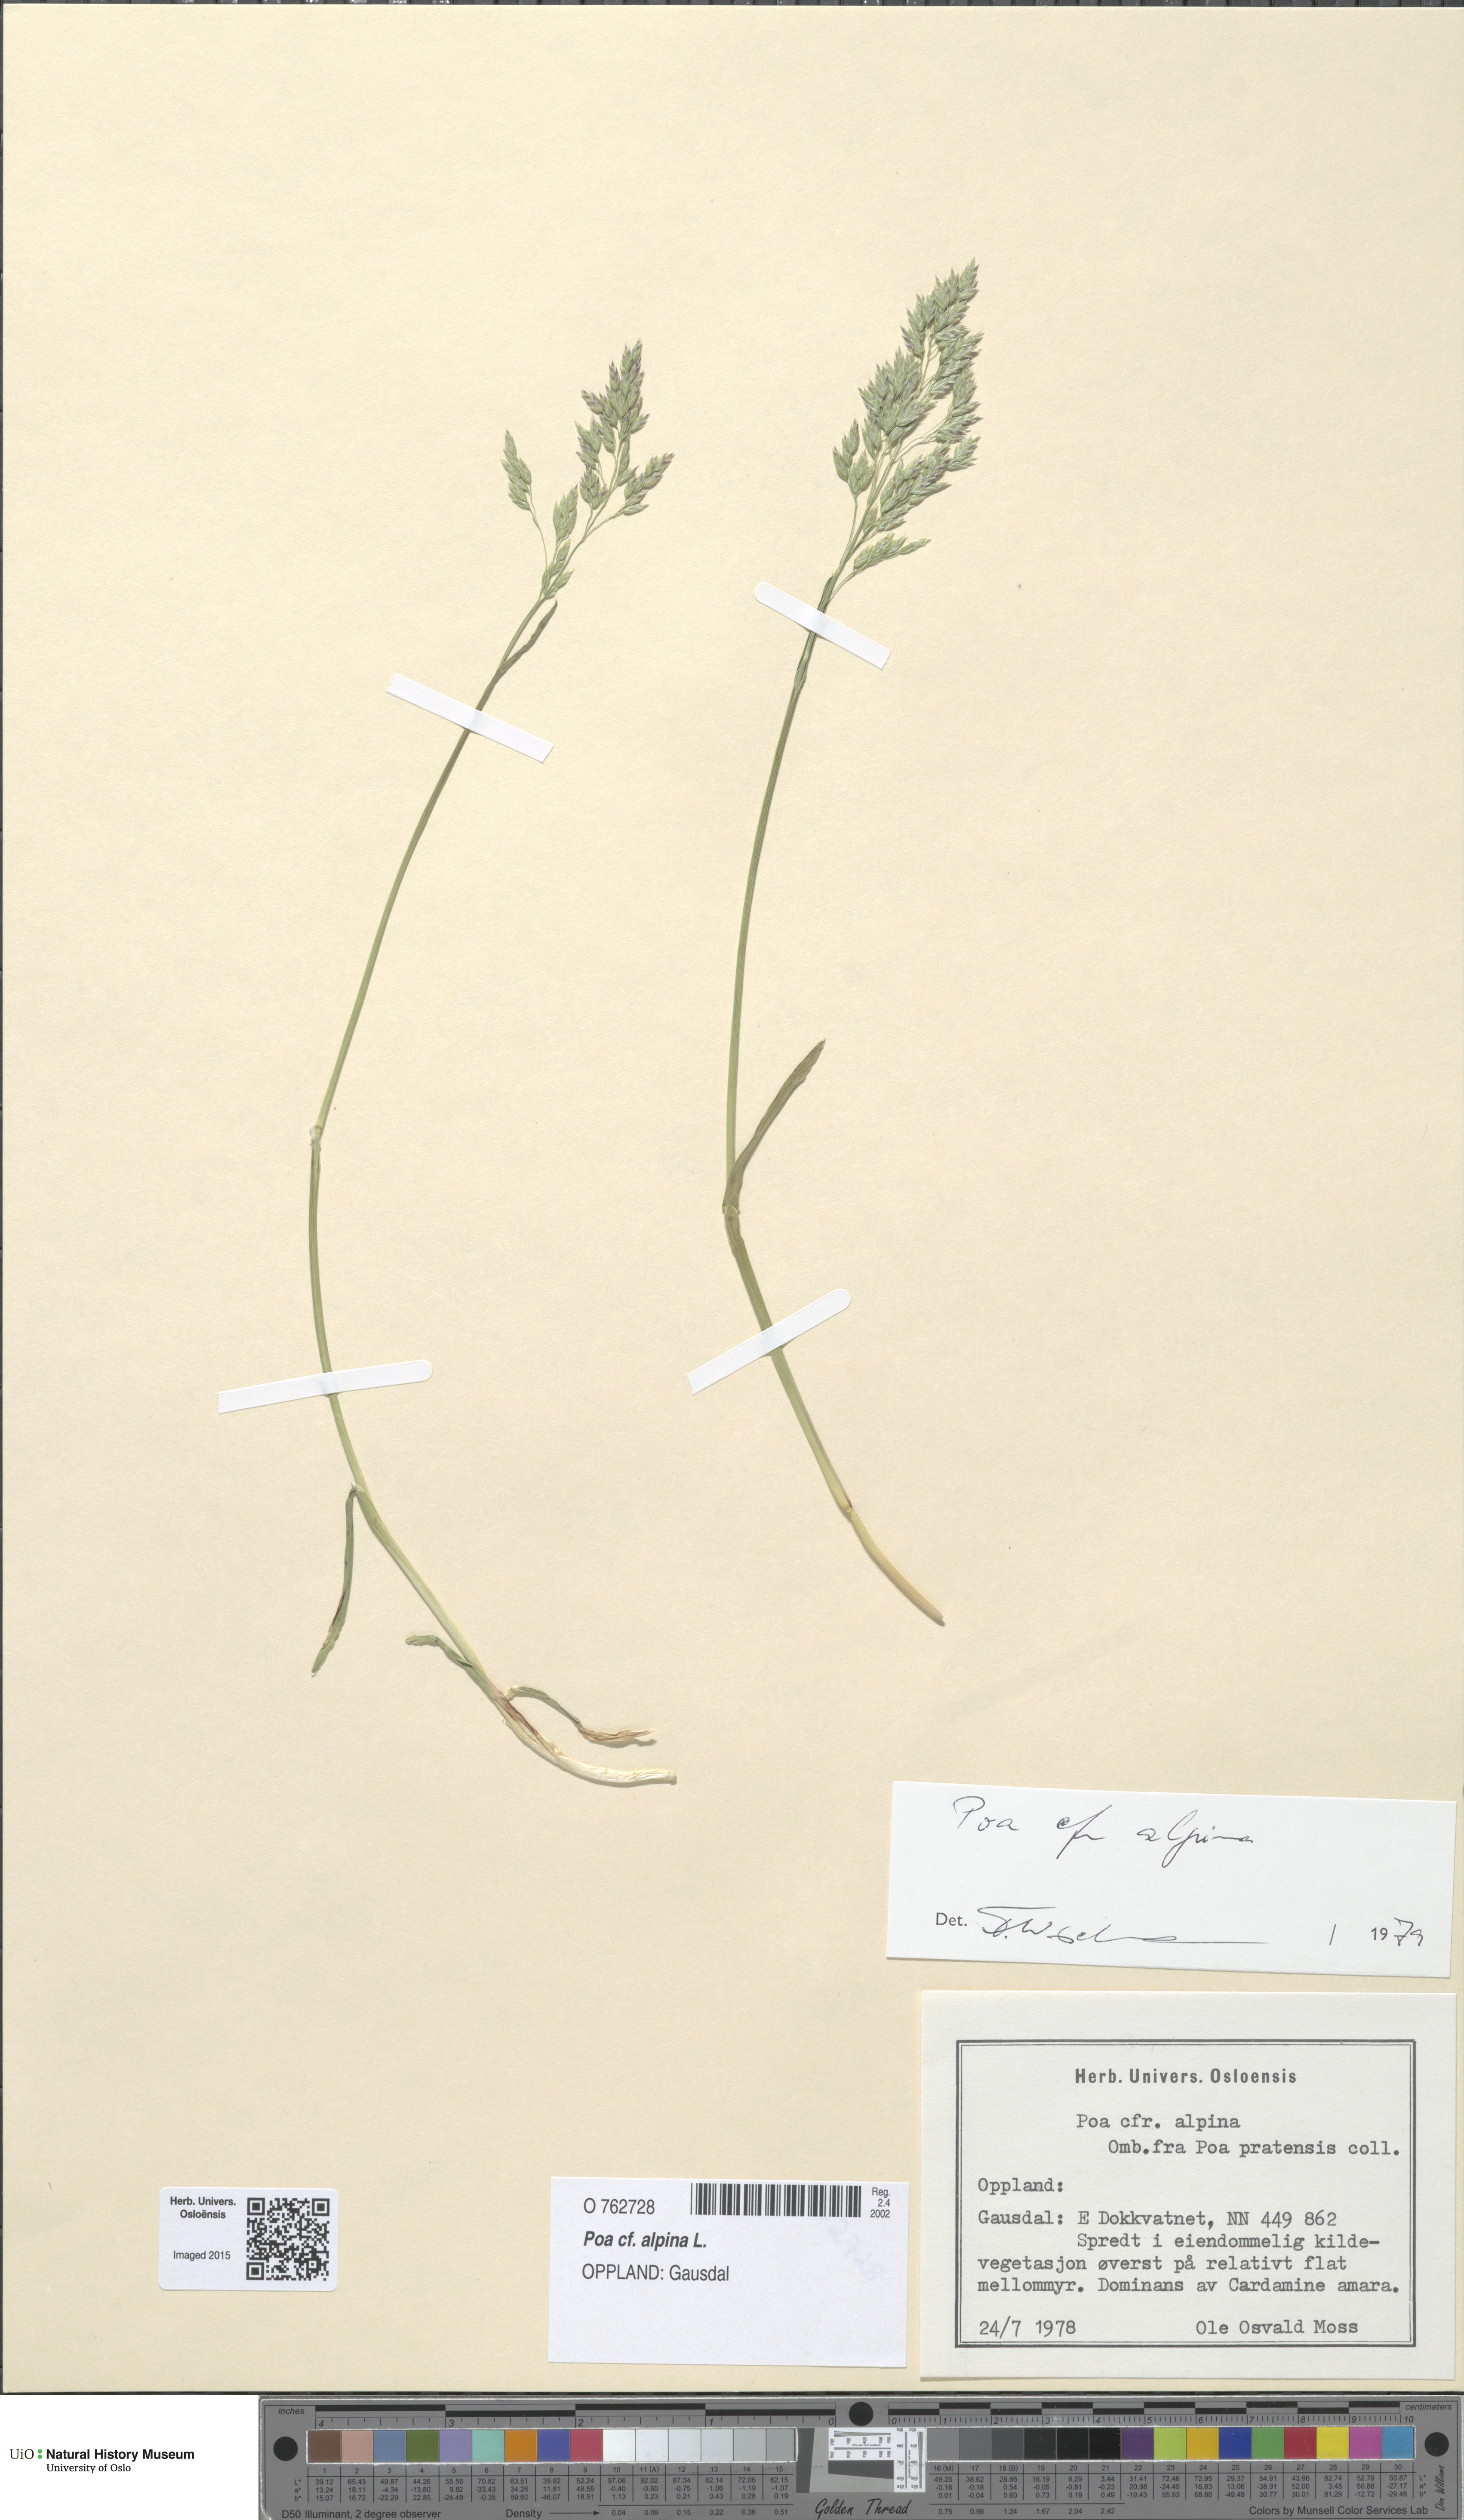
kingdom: Plantae
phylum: Tracheophyta
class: Liliopsida
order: Poales
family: Poaceae
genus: Poa
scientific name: Poa alpina
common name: Alpine bluegrass
